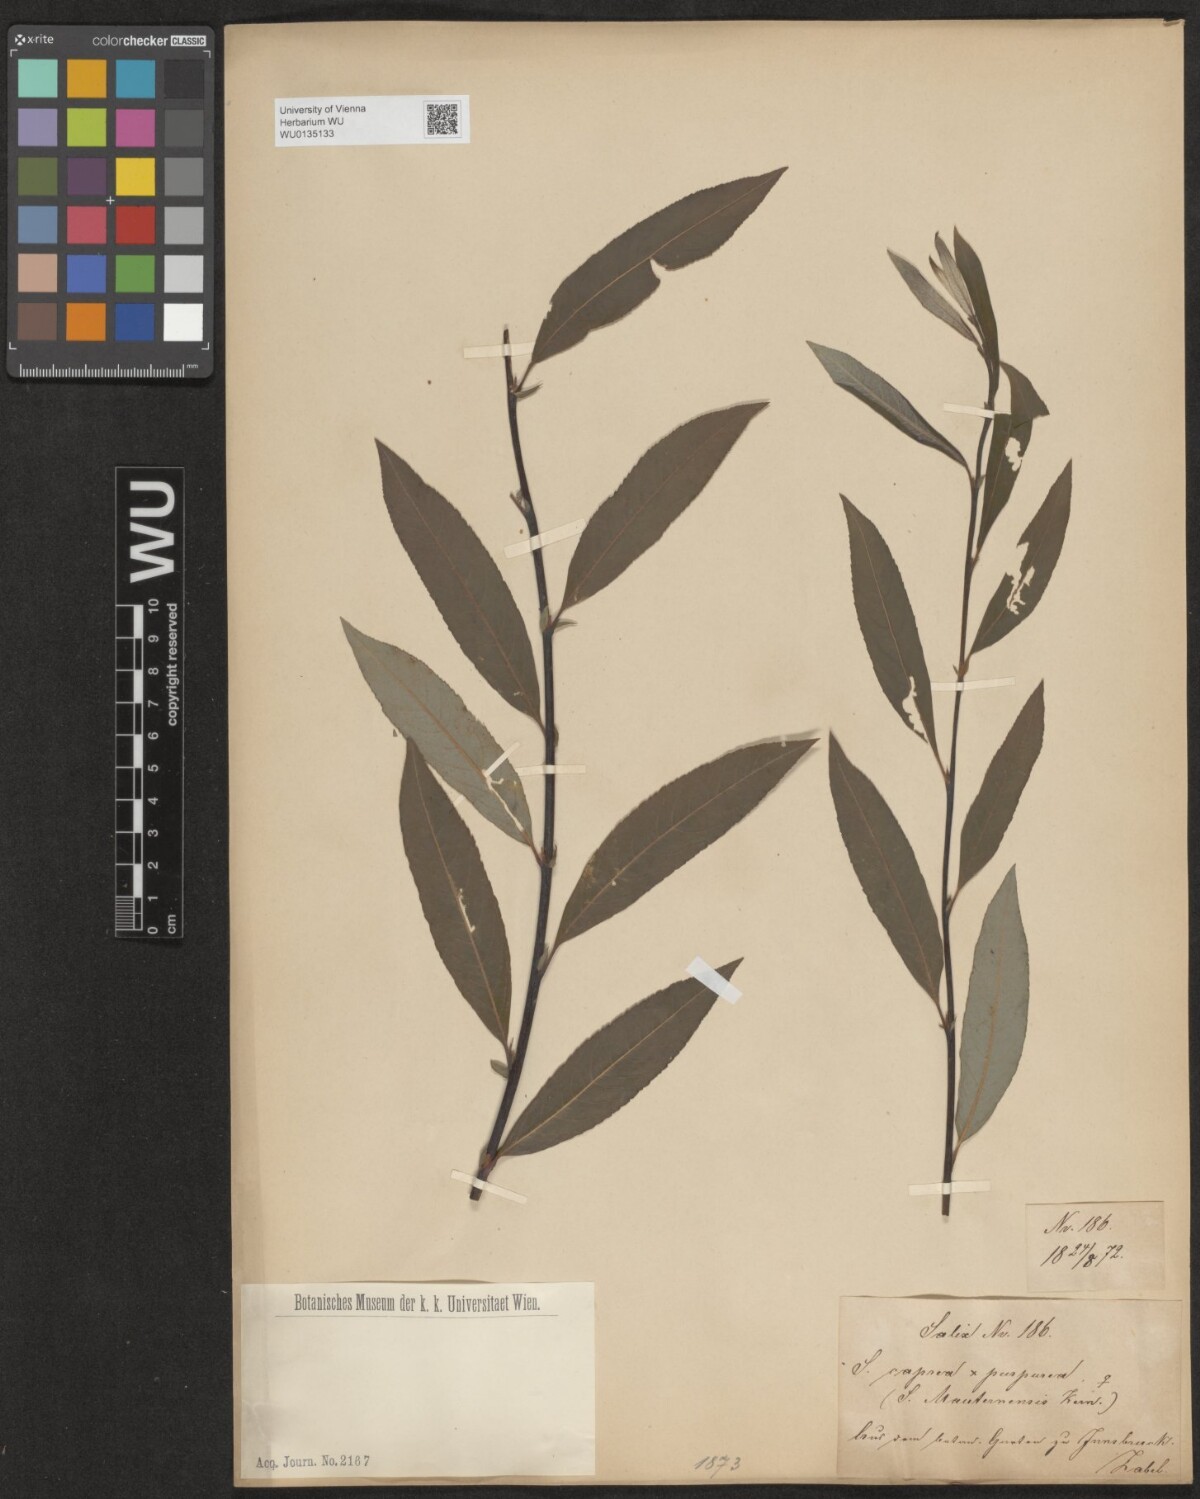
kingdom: Plantae
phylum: Tracheophyta
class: Magnoliopsida
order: Malpighiales
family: Salicaceae
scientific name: Salicaceae
